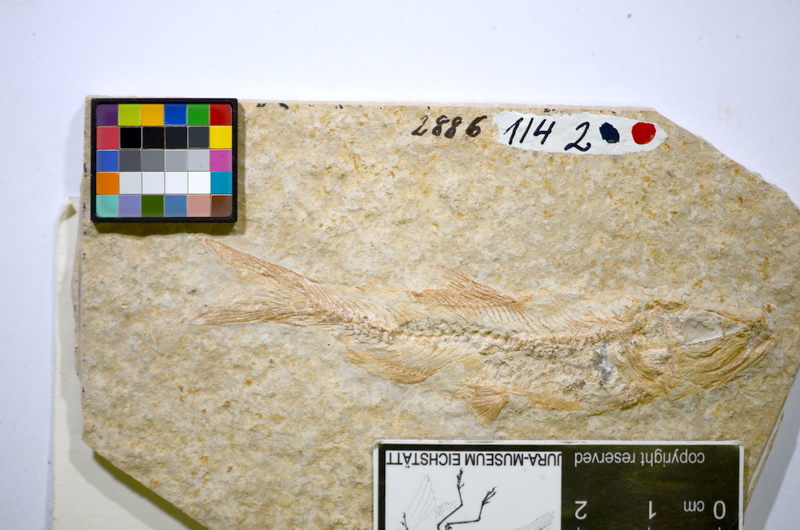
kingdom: Animalia
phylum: Chordata
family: Ascalaboidae
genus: Ascalabos
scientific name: Ascalabos voithii
